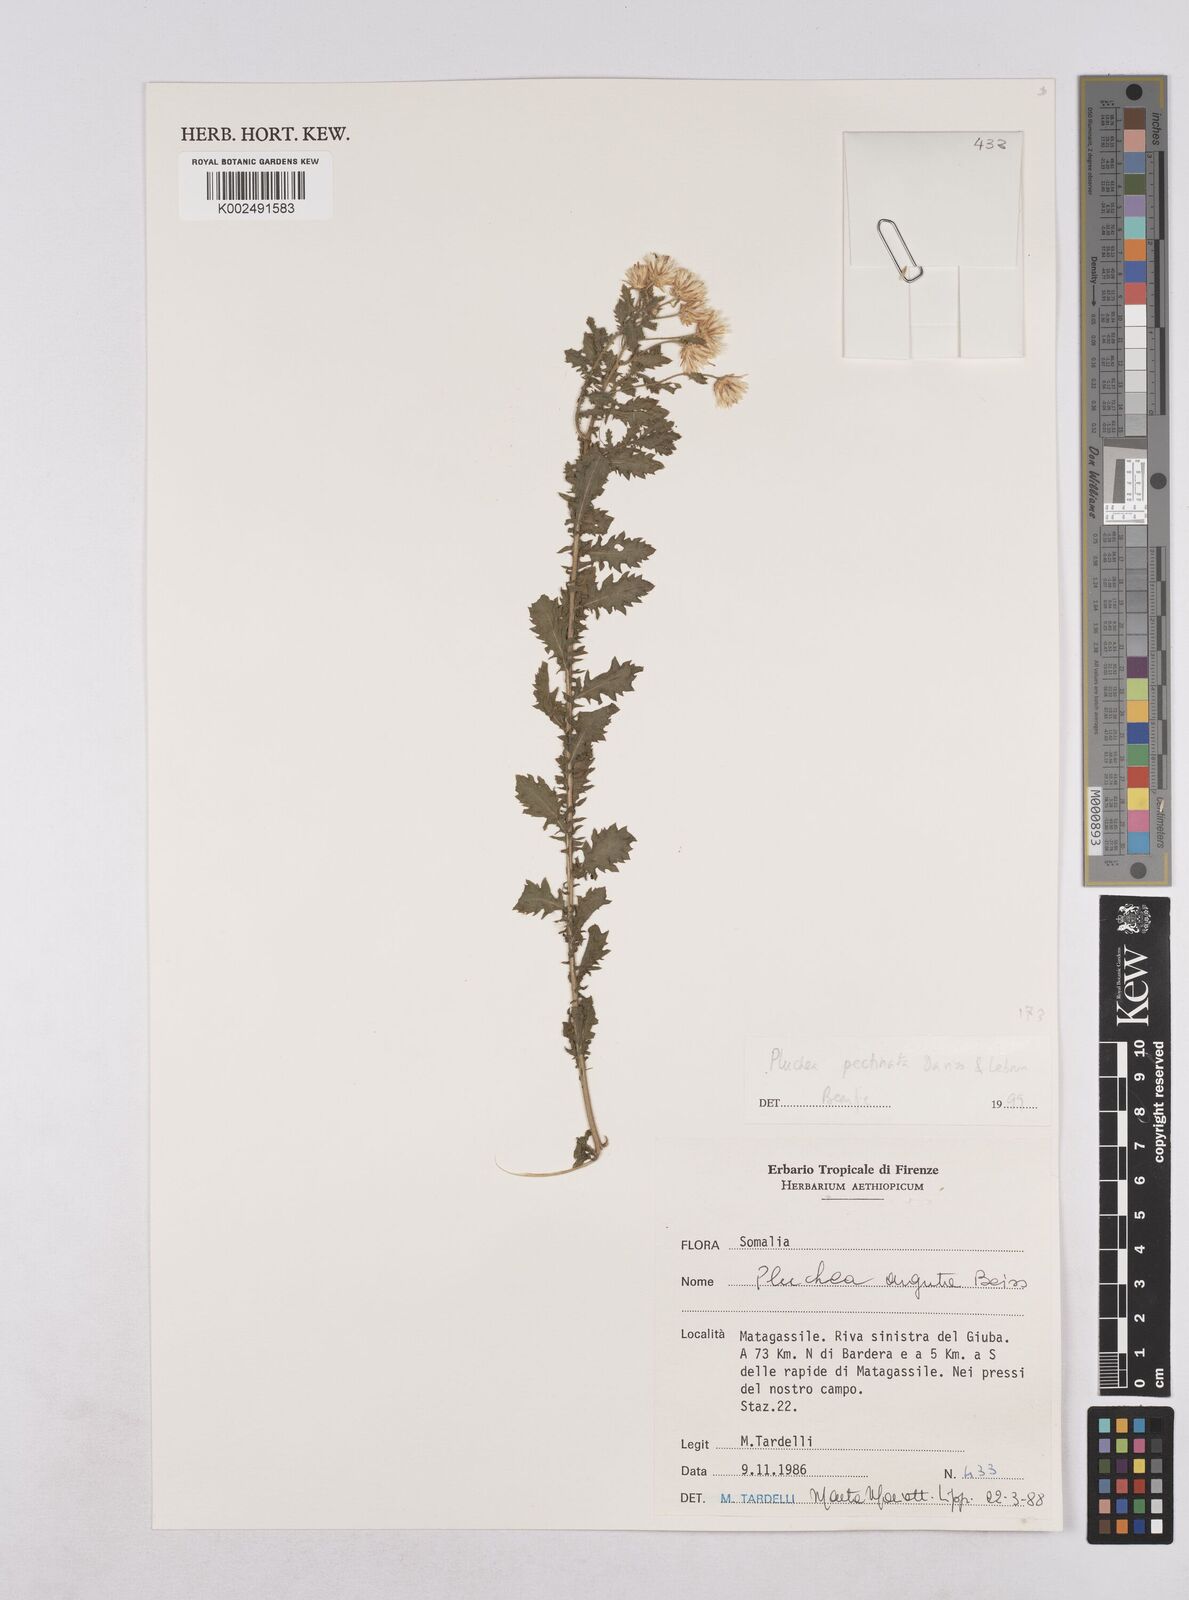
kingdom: Plantae
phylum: Tracheophyta
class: Magnoliopsida
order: Asterales
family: Asteraceae
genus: Pluchea
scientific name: Pluchea somaliensis
